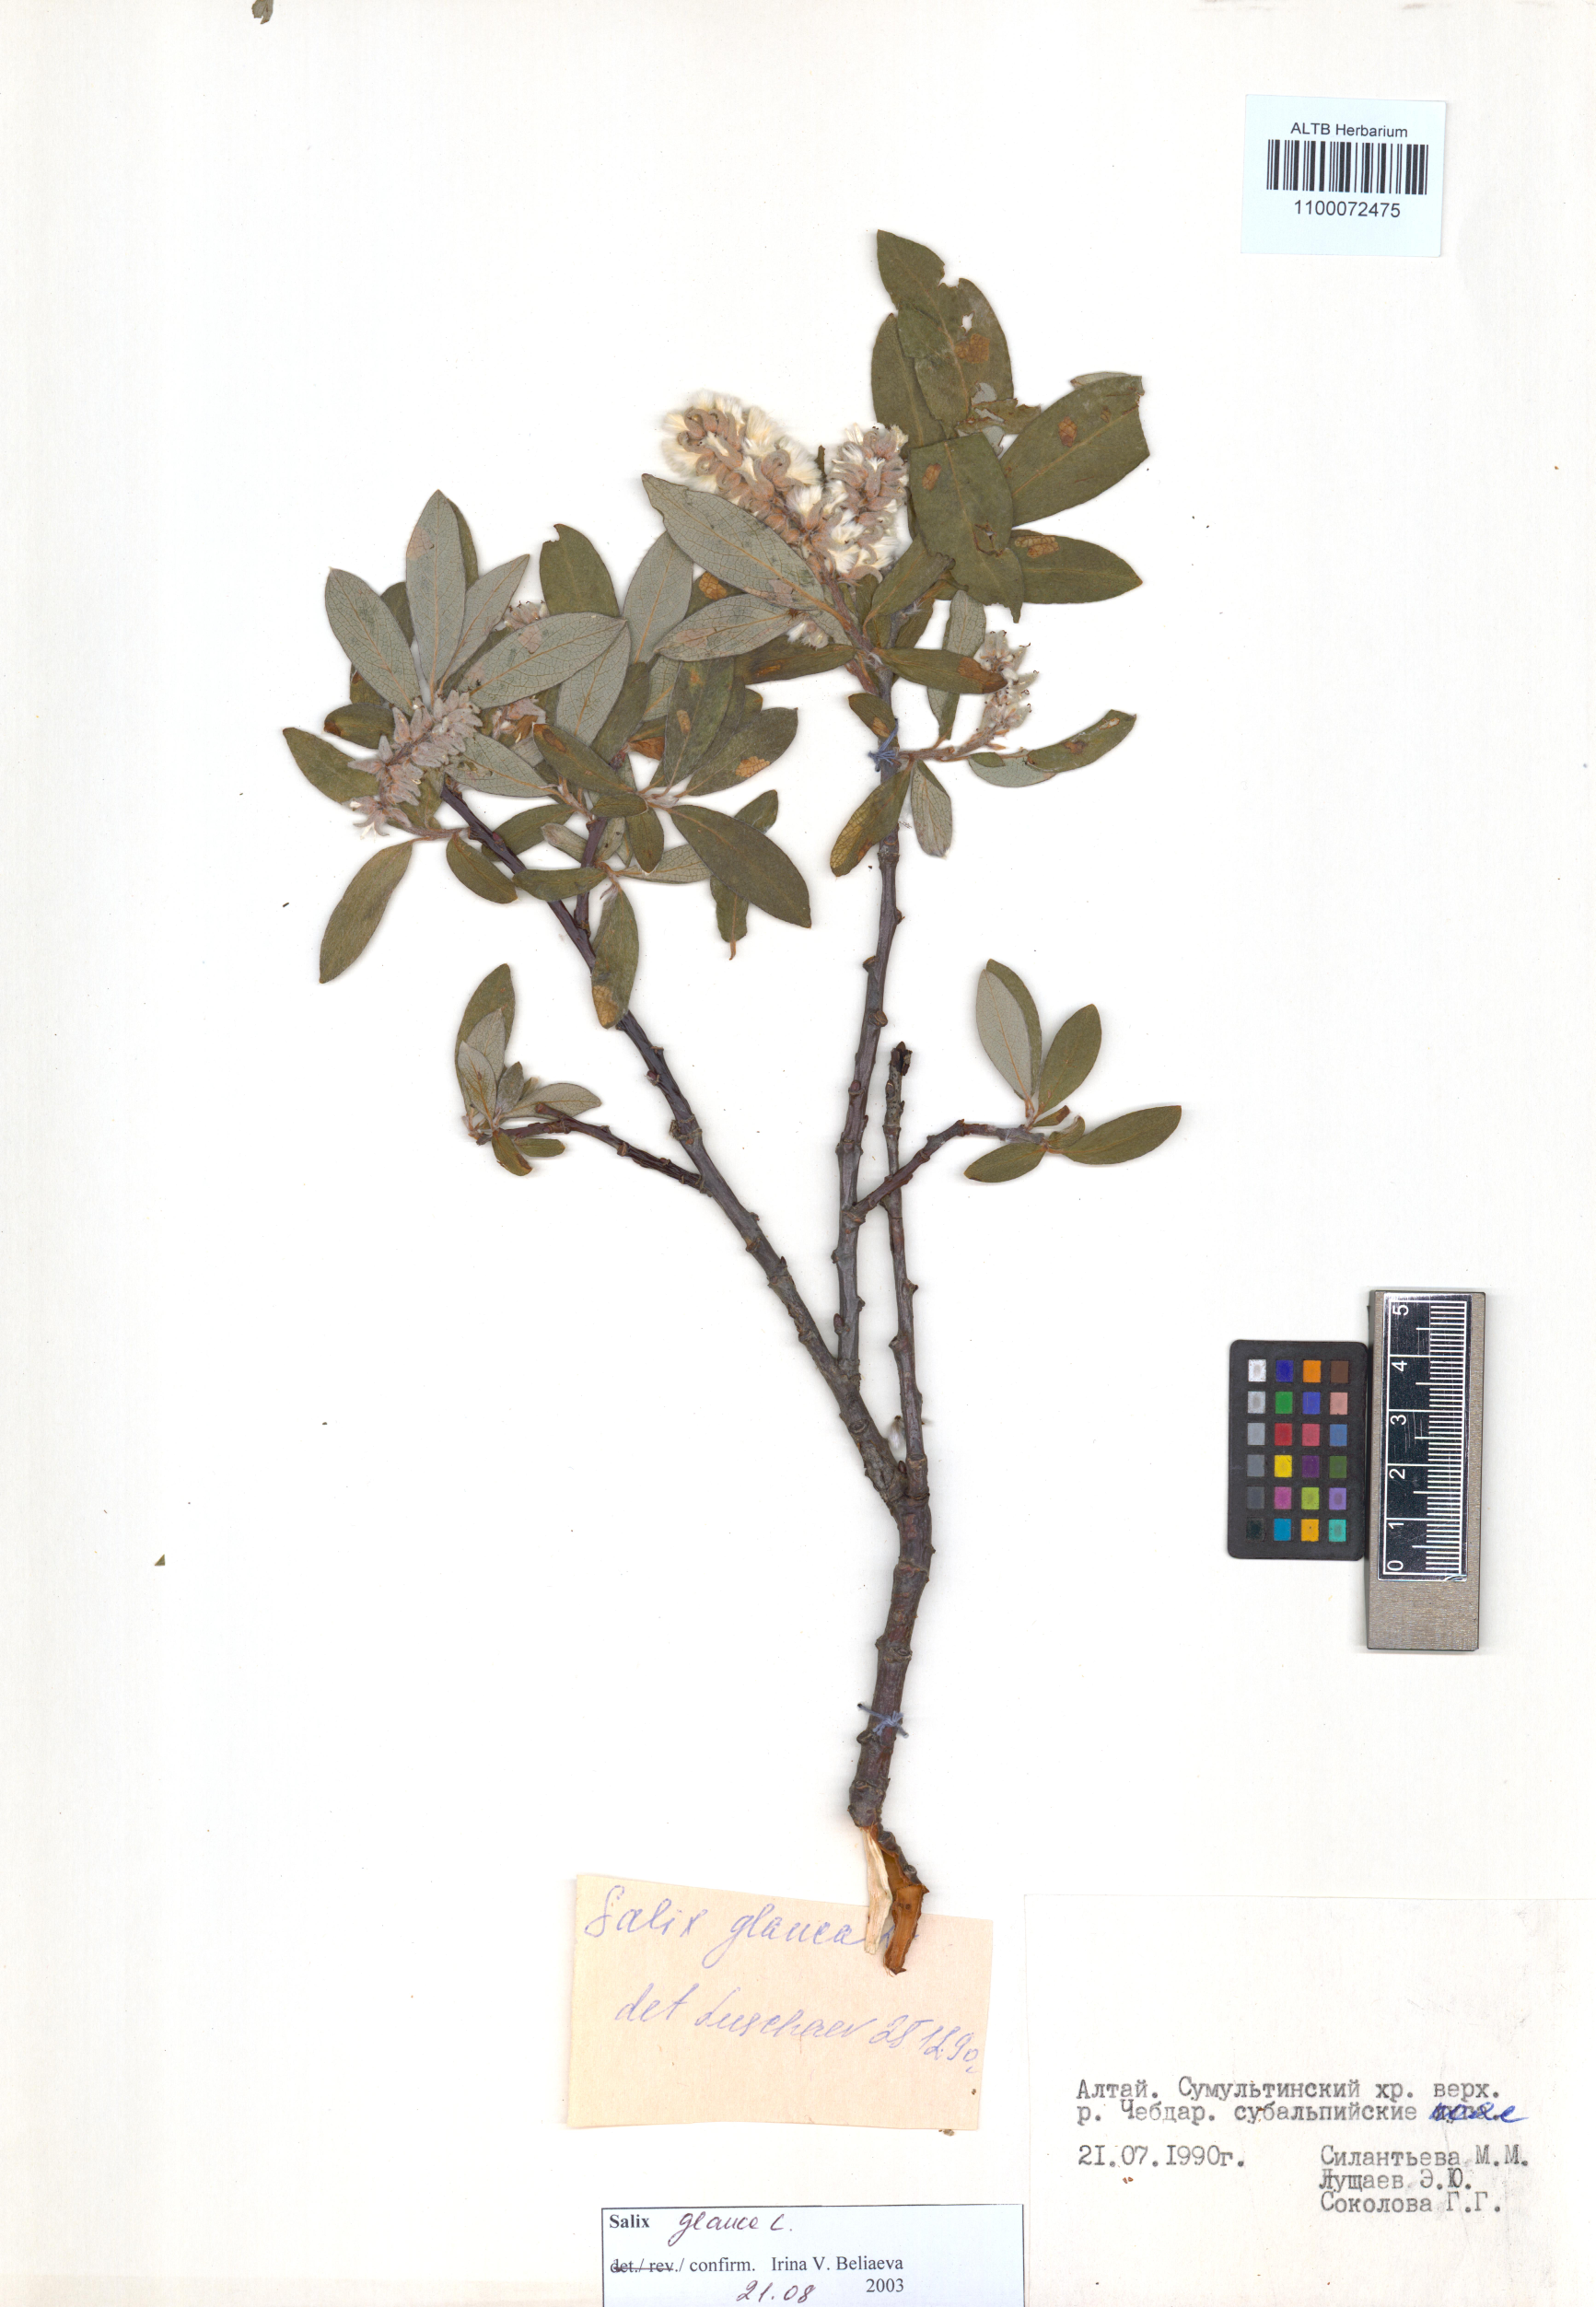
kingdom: Plantae
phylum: Tracheophyta
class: Magnoliopsida
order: Malpighiales
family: Salicaceae
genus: Salix
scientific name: Salix glauca
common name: Glaucous willow
